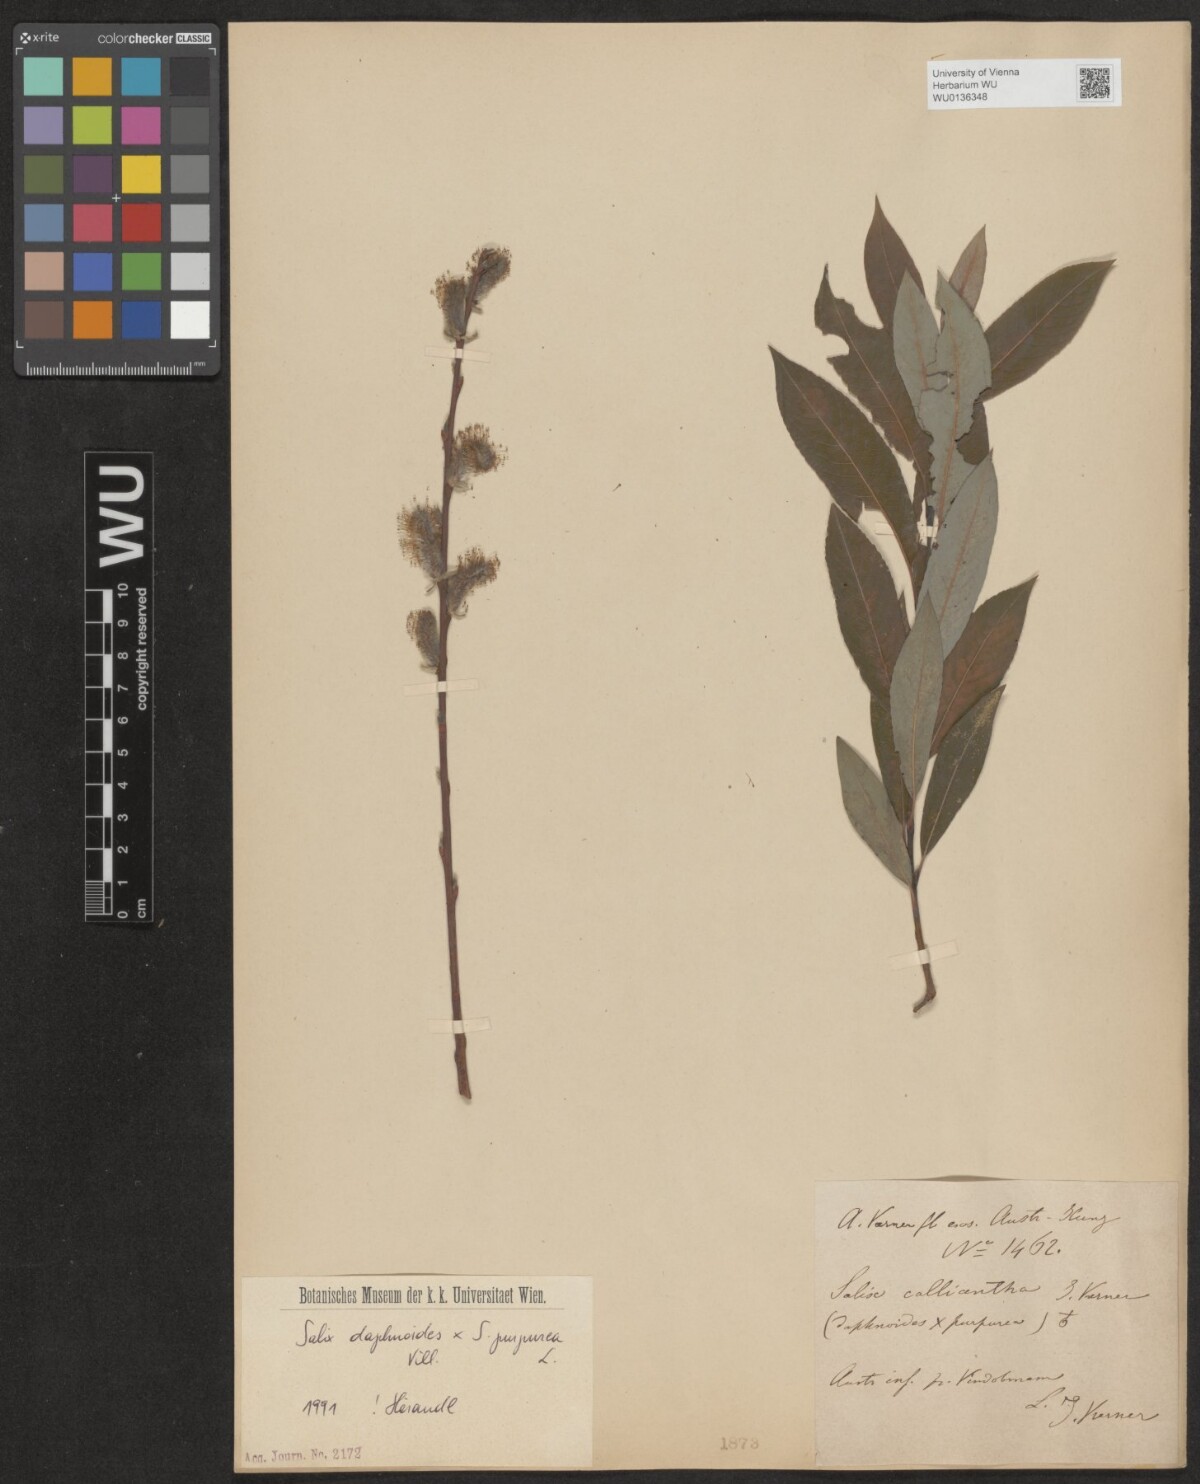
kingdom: Plantae
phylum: Tracheophyta
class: Magnoliopsida
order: Malpighiales
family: Salicaceae
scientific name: Salicaceae
